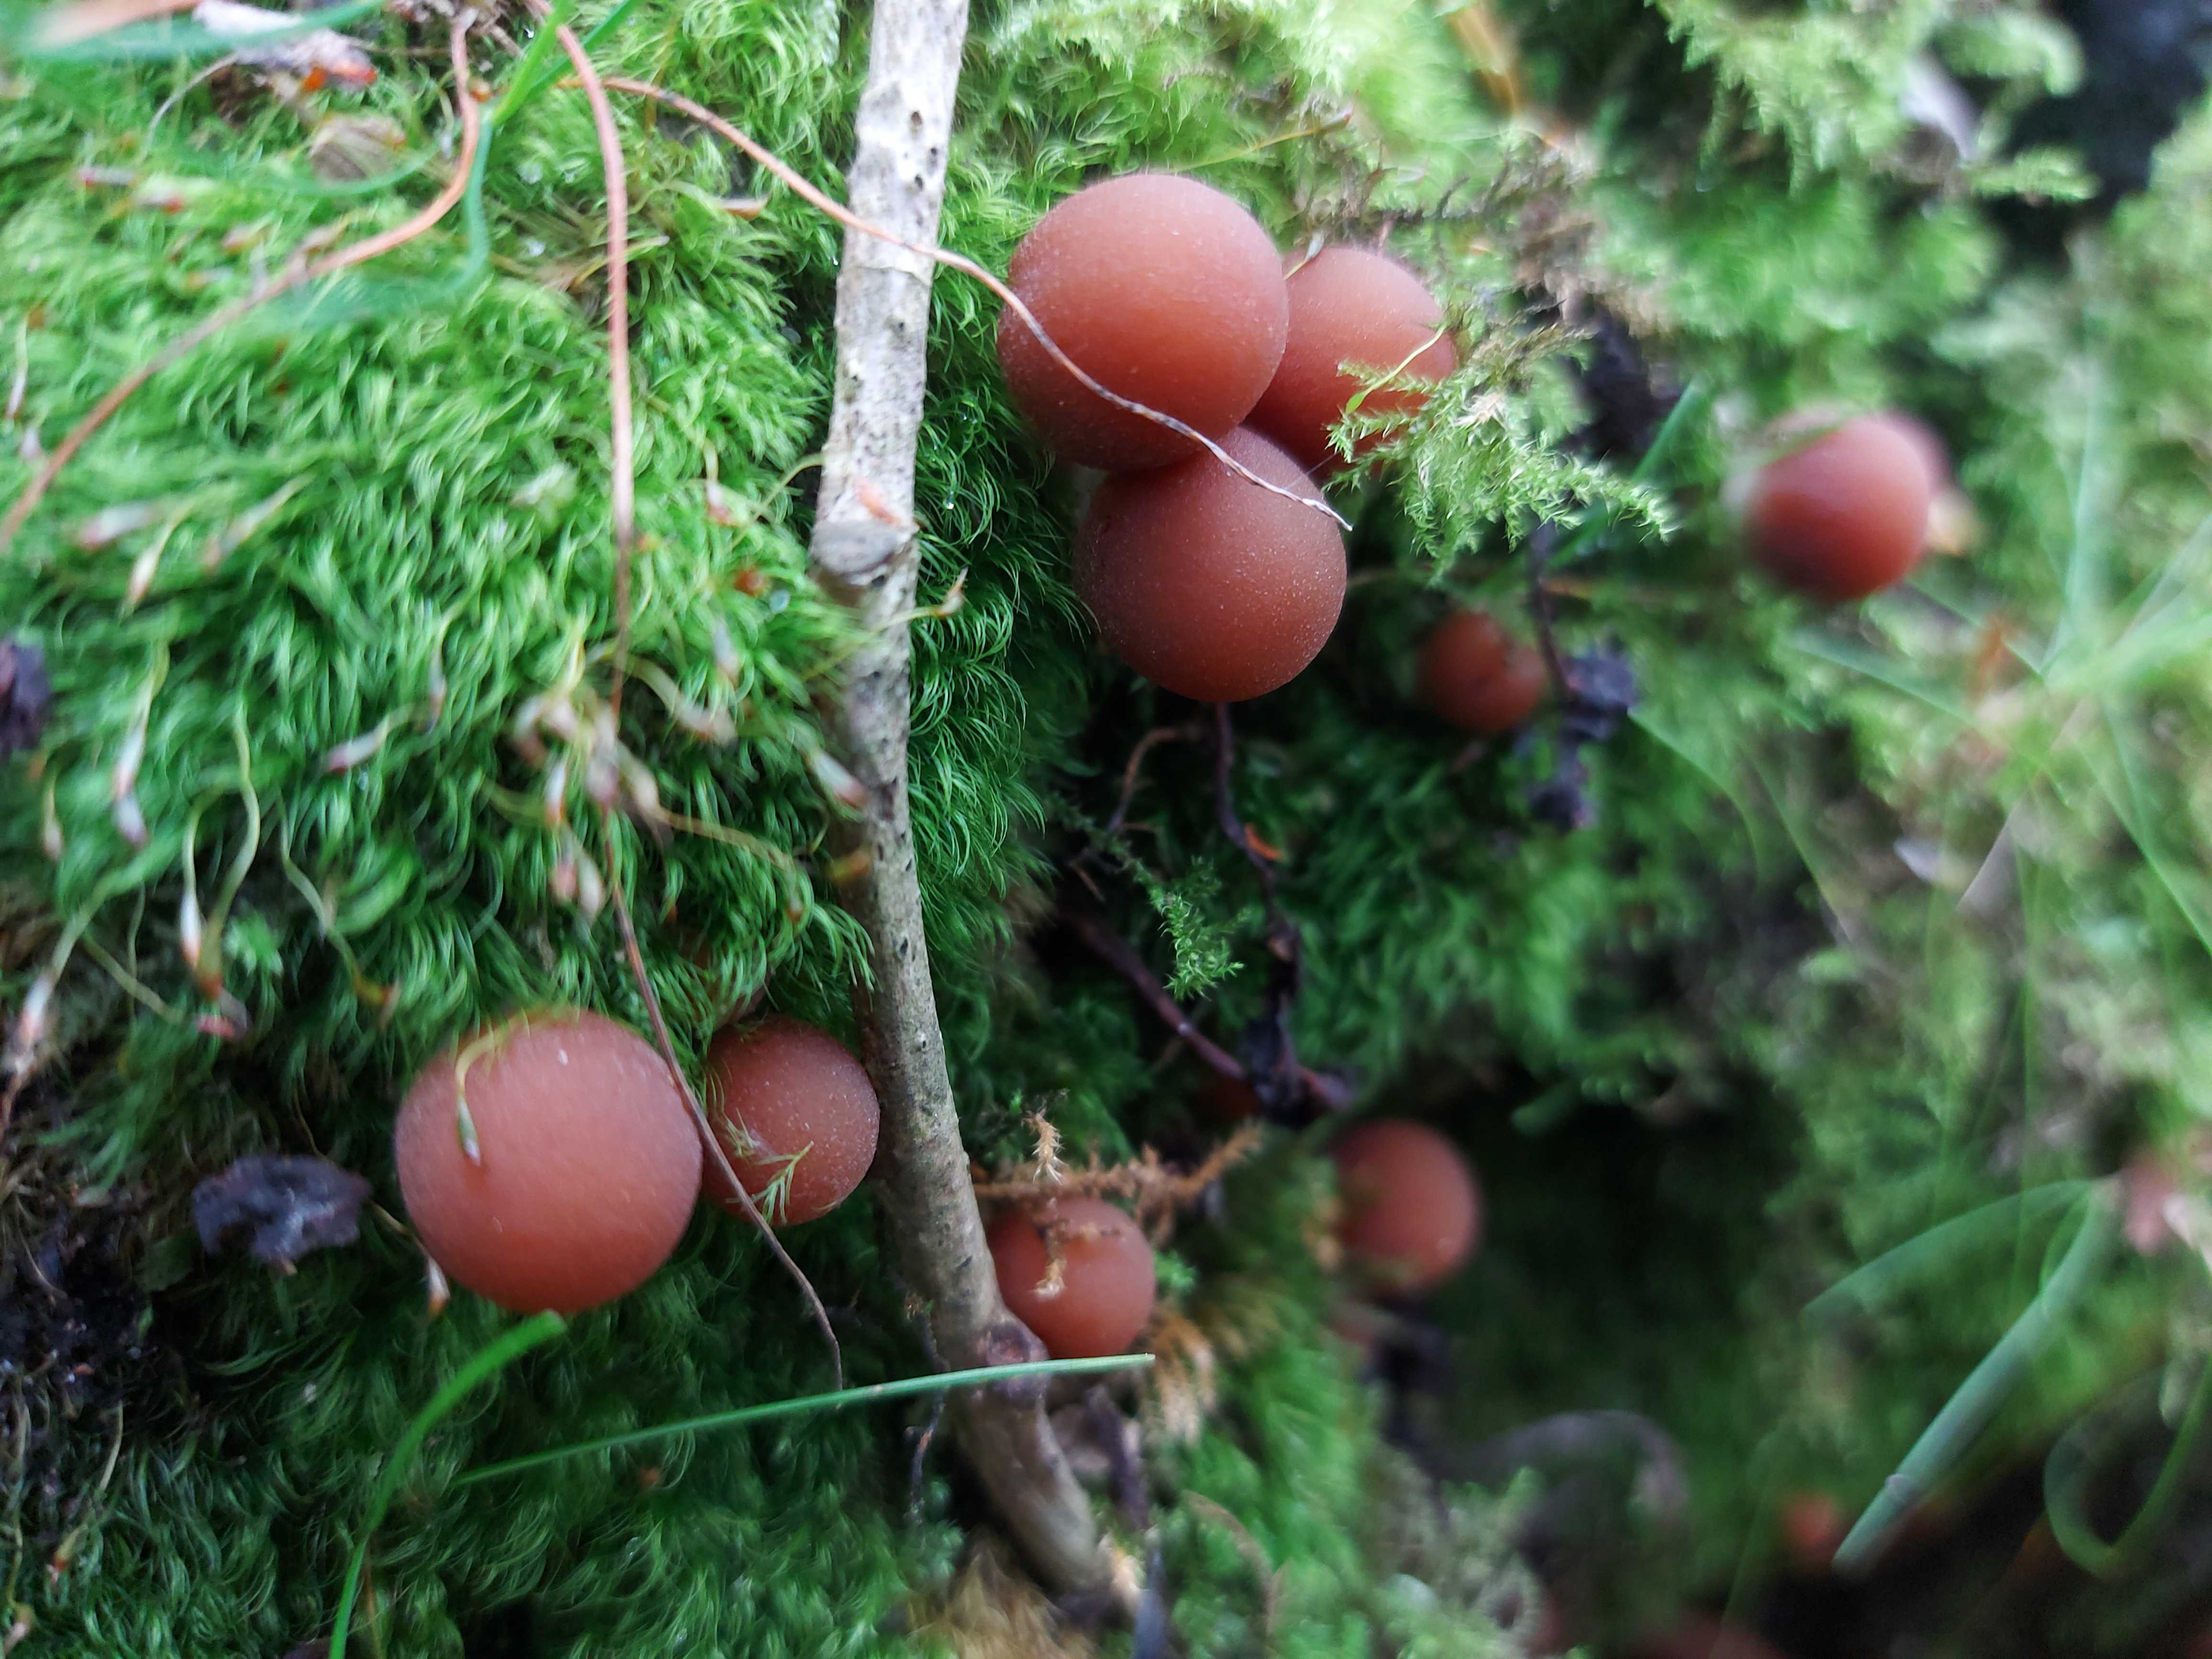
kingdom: Fungi
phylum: Basidiomycota
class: Agaricomycetes
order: Agaricales
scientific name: Agaricales
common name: champignonordenen
